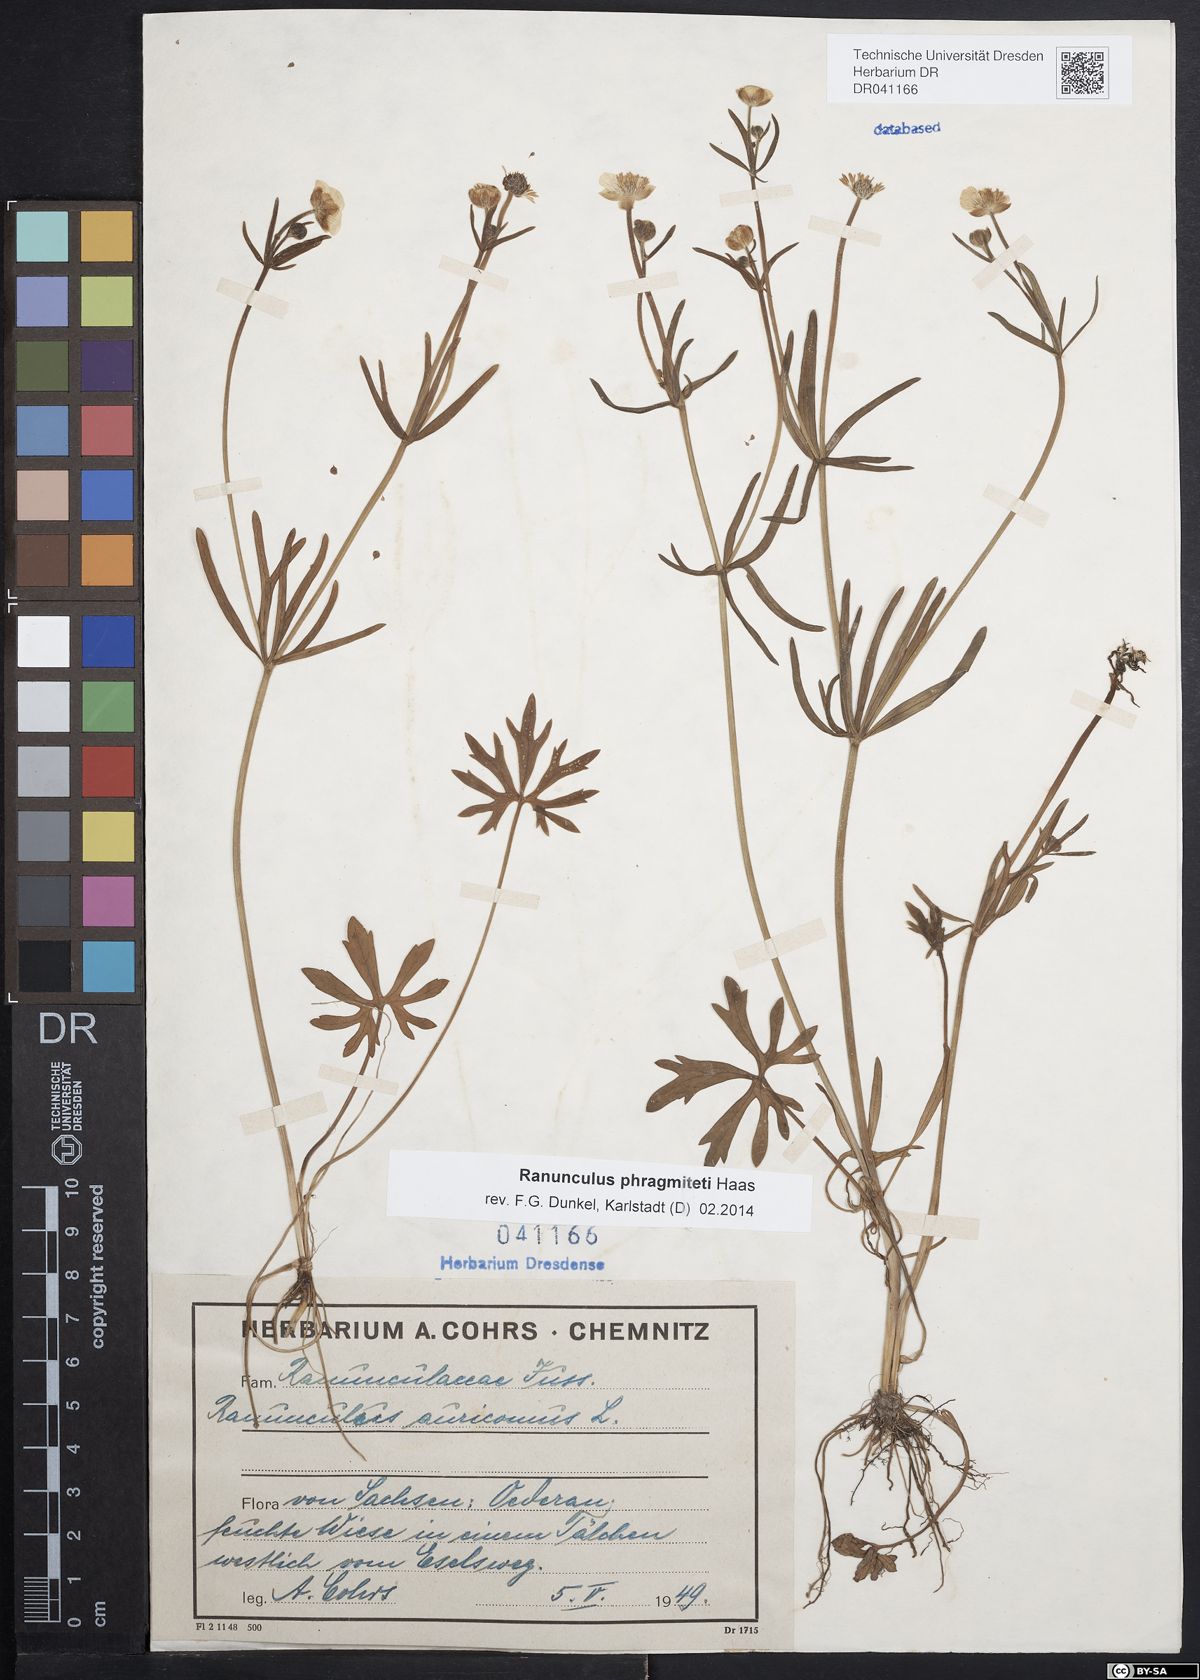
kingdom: Plantae
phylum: Tracheophyta
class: Magnoliopsida
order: Ranunculales
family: Ranunculaceae
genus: Ranunculus
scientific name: Ranunculus phragmiteti
